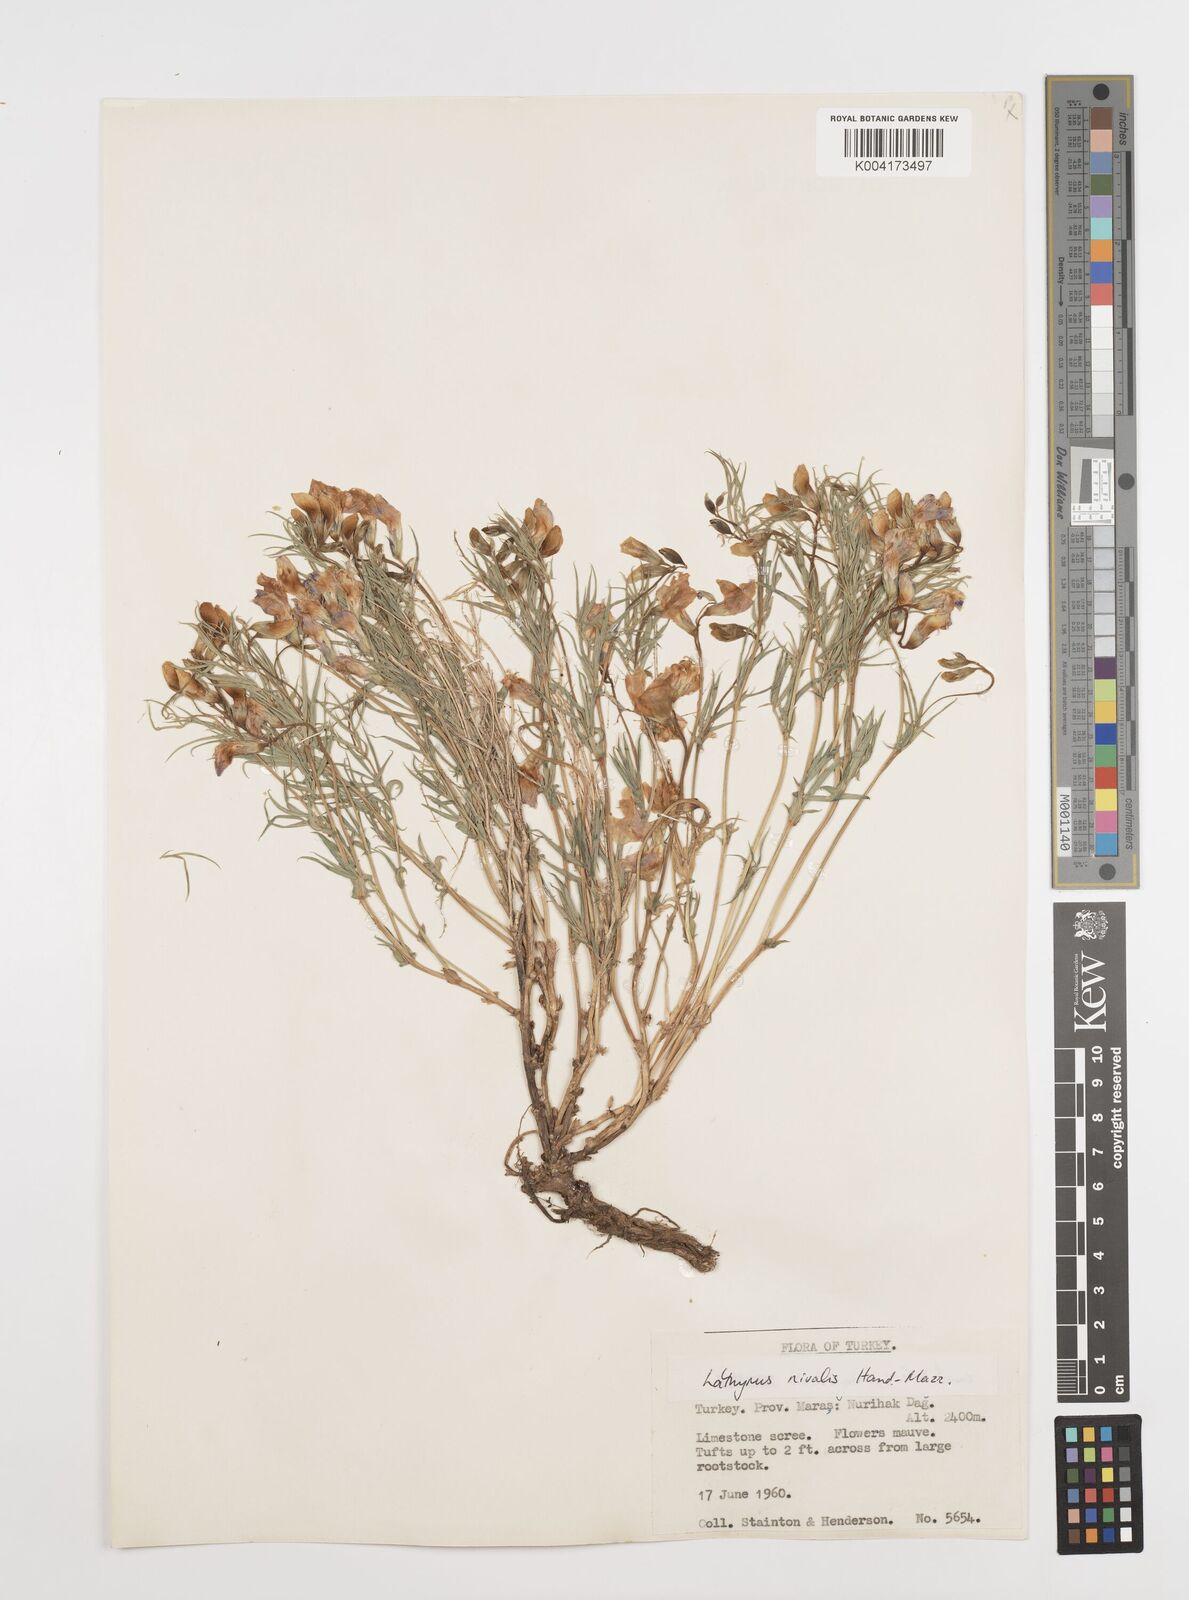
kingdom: Plantae
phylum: Tracheophyta
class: Magnoliopsida
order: Fabales
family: Fabaceae
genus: Lathyrus
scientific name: Lathyrus nivalis
